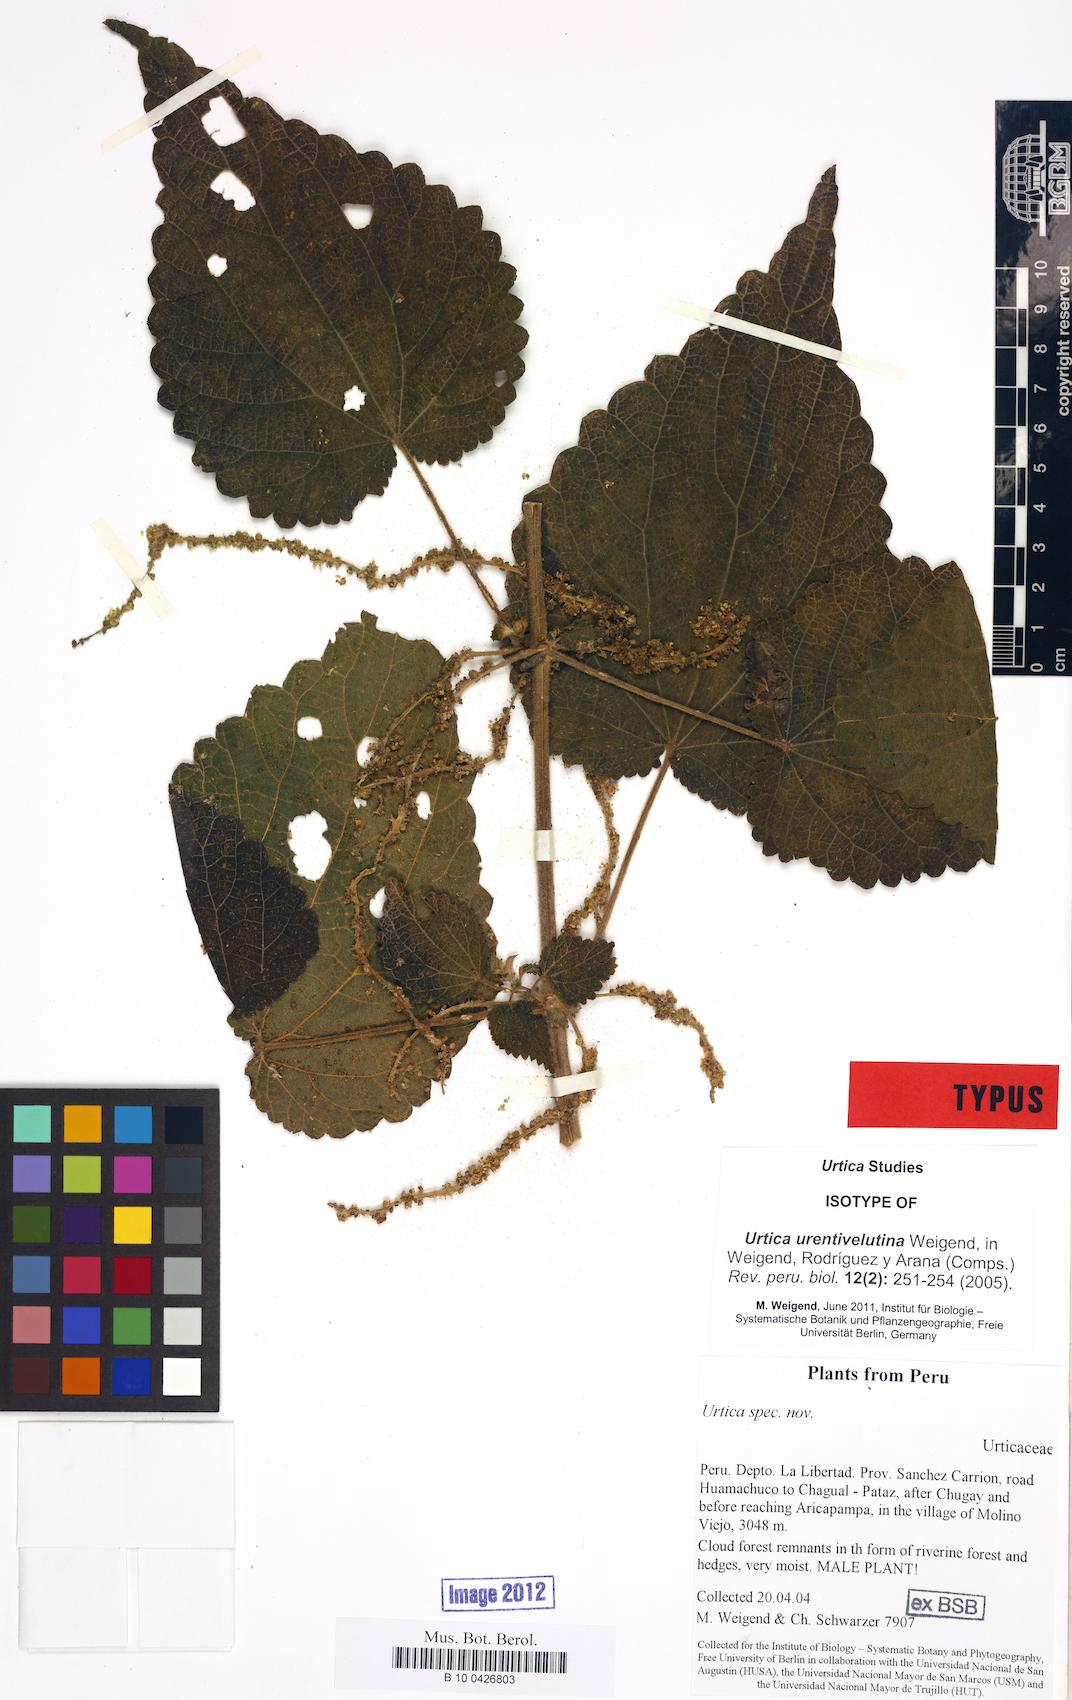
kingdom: Plantae
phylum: Tracheophyta
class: Magnoliopsida
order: Rosales
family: Urticaceae
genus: Urtica
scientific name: Urtica urentivelutina
